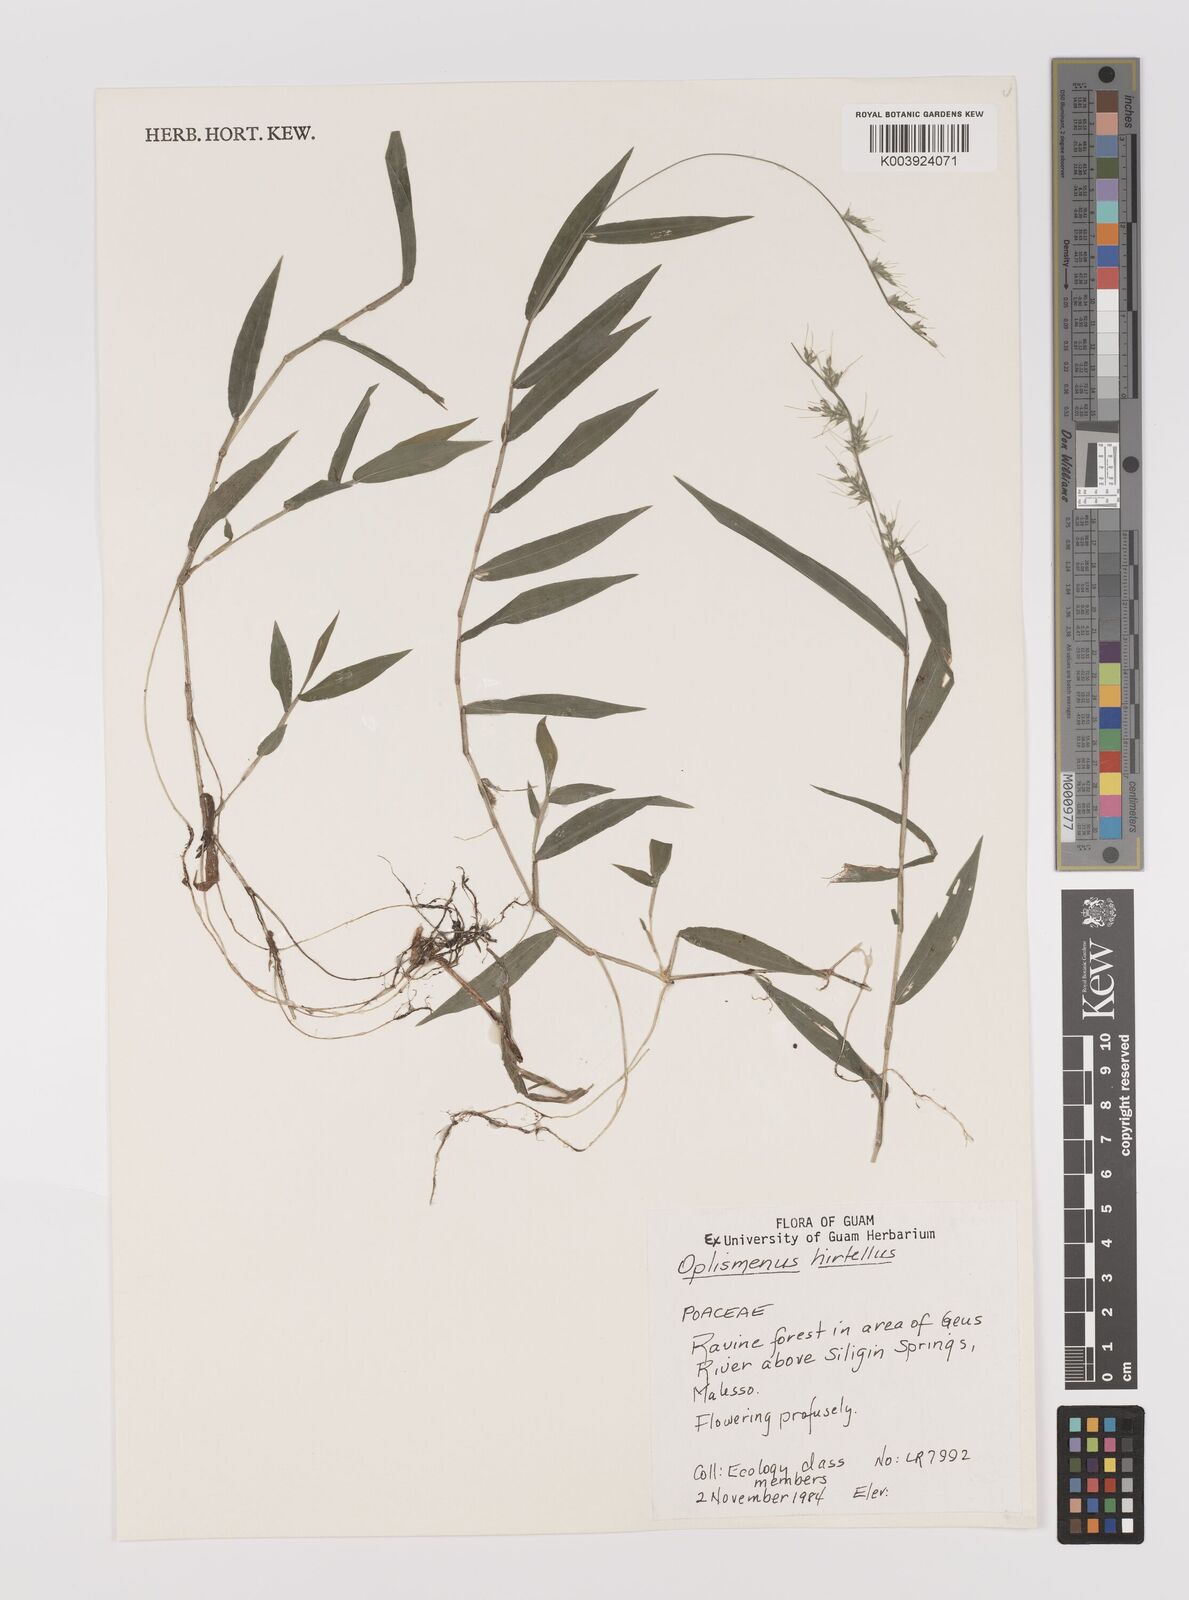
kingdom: Plantae
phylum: Tracheophyta
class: Liliopsida
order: Poales
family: Poaceae
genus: Oplismenus
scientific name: Oplismenus
